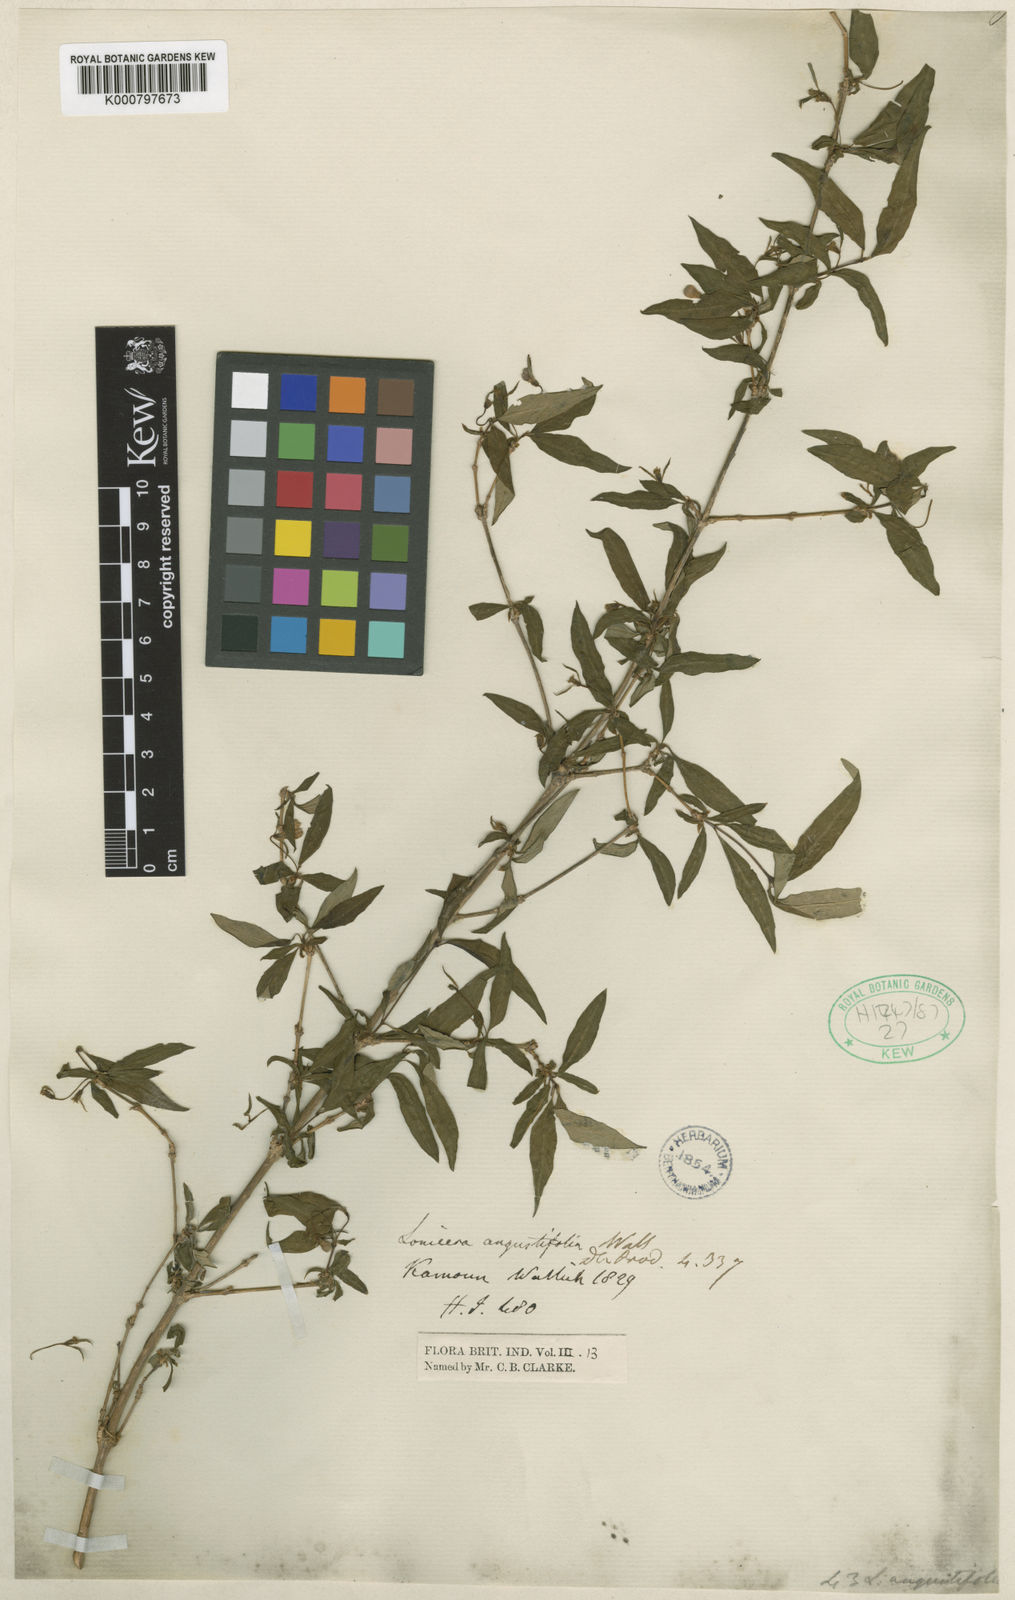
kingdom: Plantae
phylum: Tracheophyta
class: Magnoliopsida
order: Dipsacales
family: Caprifoliaceae
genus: Lonicera
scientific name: Lonicera angustifolia
